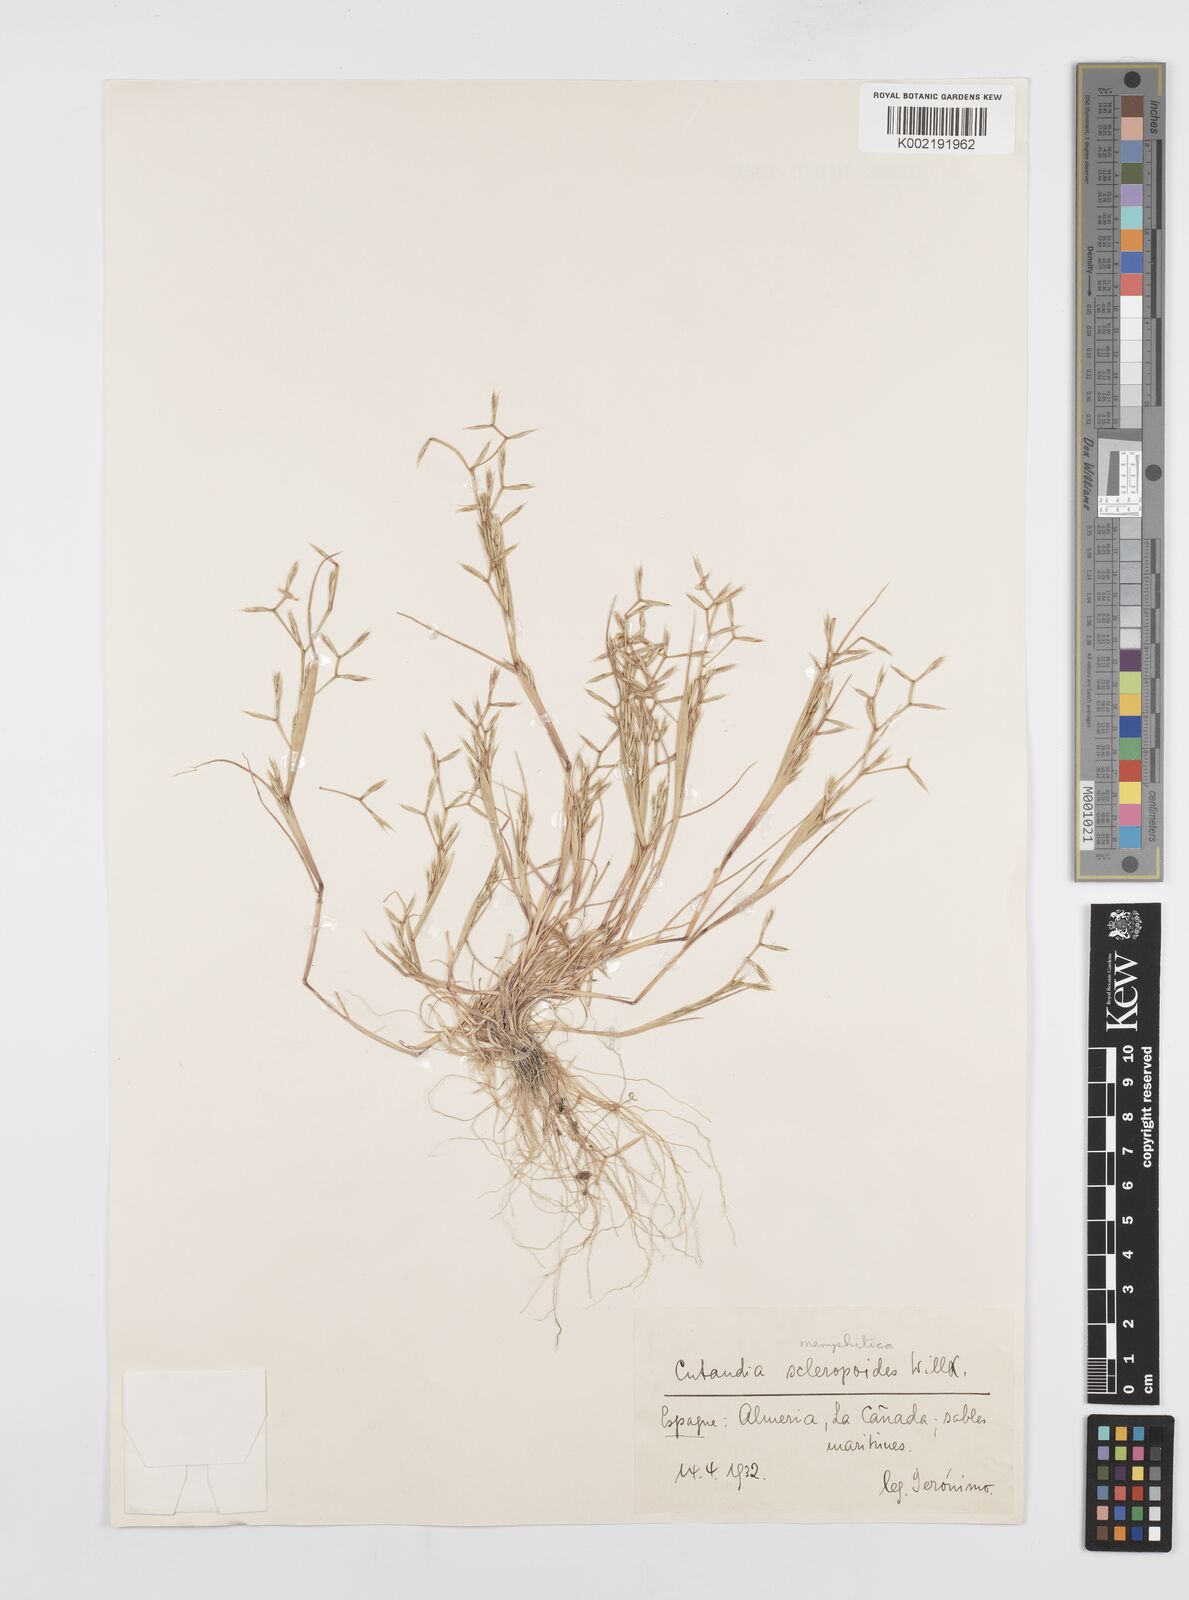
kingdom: Plantae
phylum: Tracheophyta
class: Liliopsida
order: Poales
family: Poaceae
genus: Cutandia
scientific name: Cutandia memphitica
